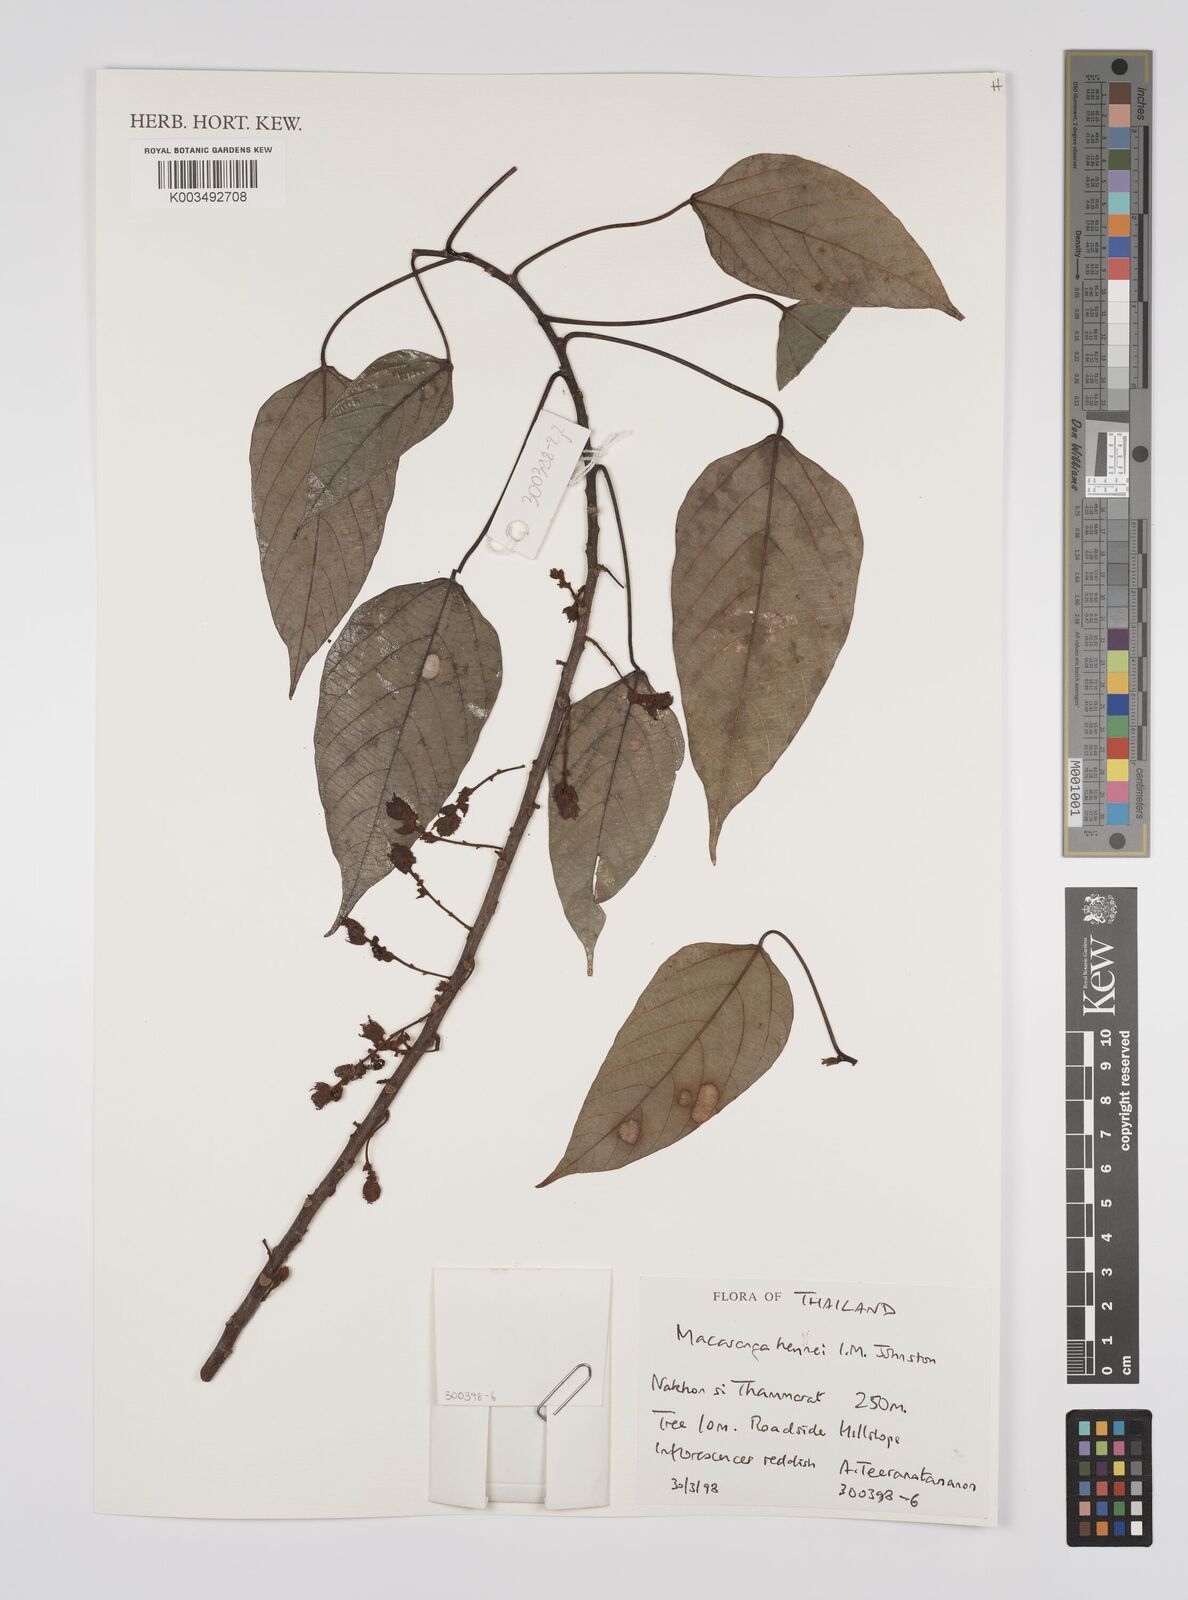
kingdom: Plantae
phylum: Tracheophyta
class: Magnoliopsida
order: Malpighiales
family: Euphorbiaceae
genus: Macaranga
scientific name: Macaranga heynei
